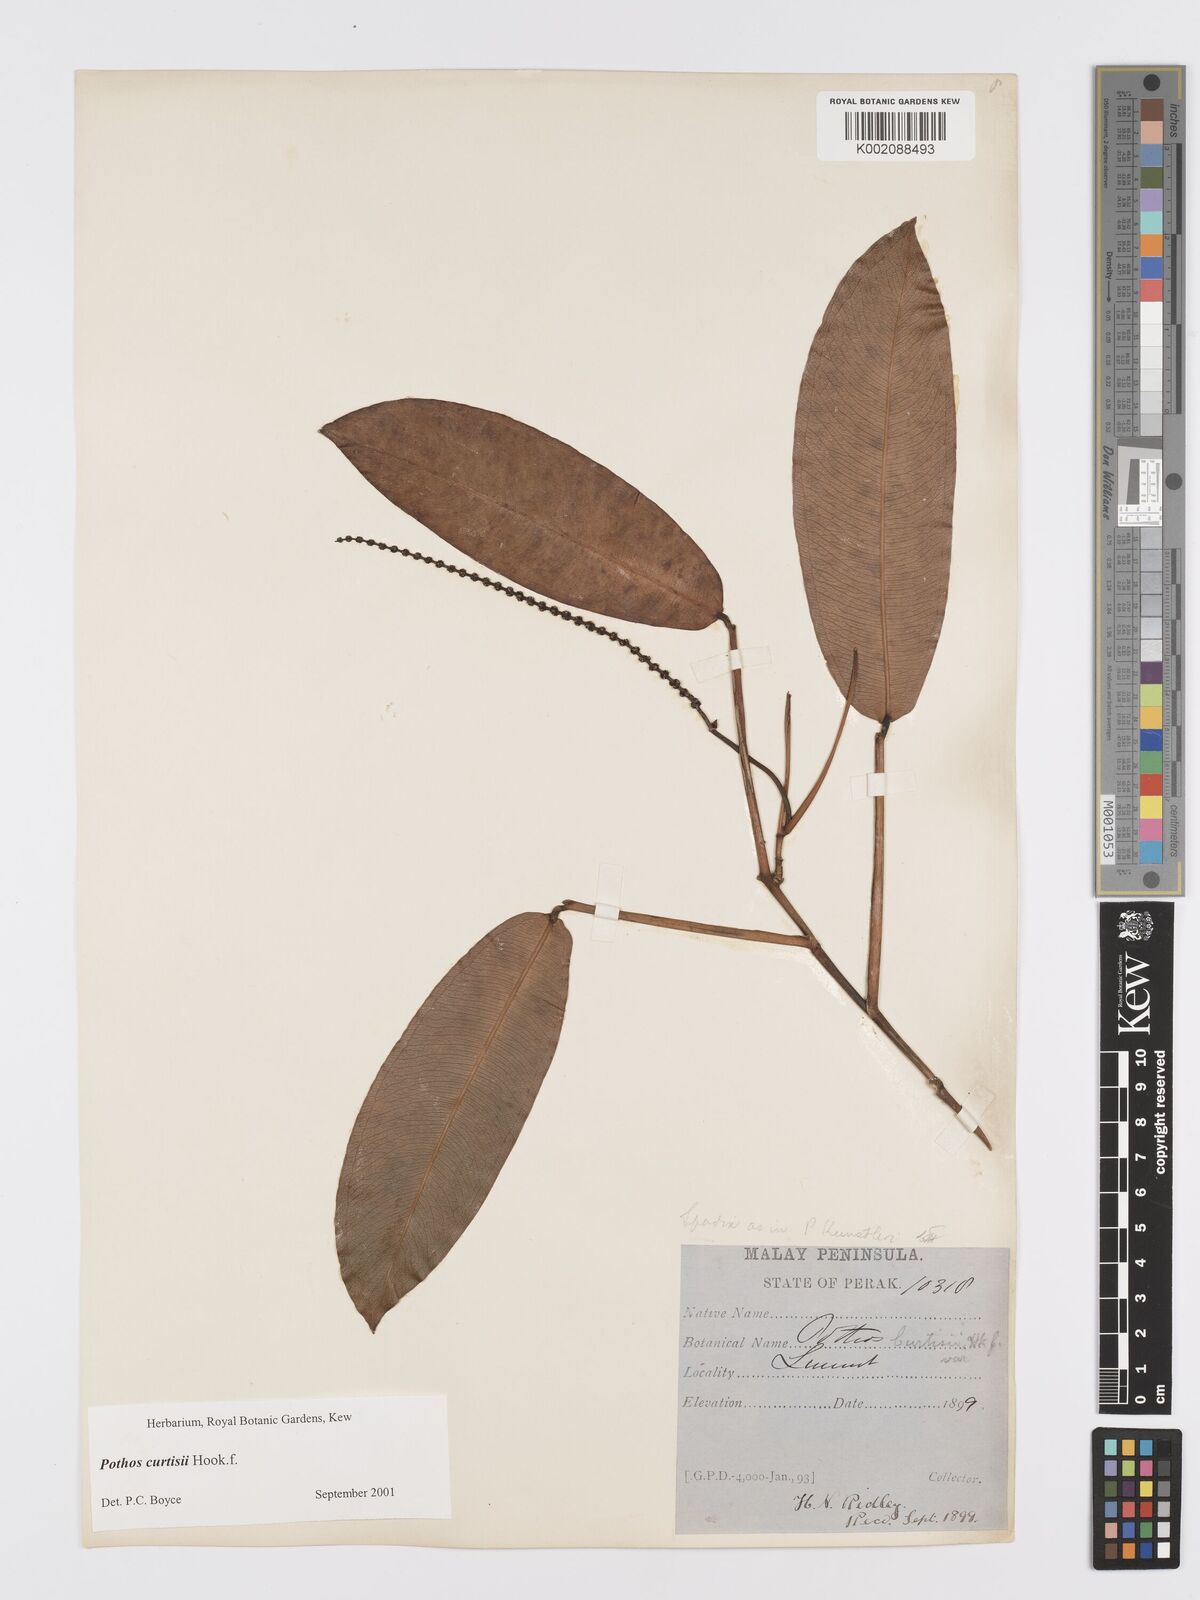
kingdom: Plantae
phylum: Tracheophyta
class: Liliopsida
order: Alismatales
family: Araceae
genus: Pothos
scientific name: Pothos curtisii
